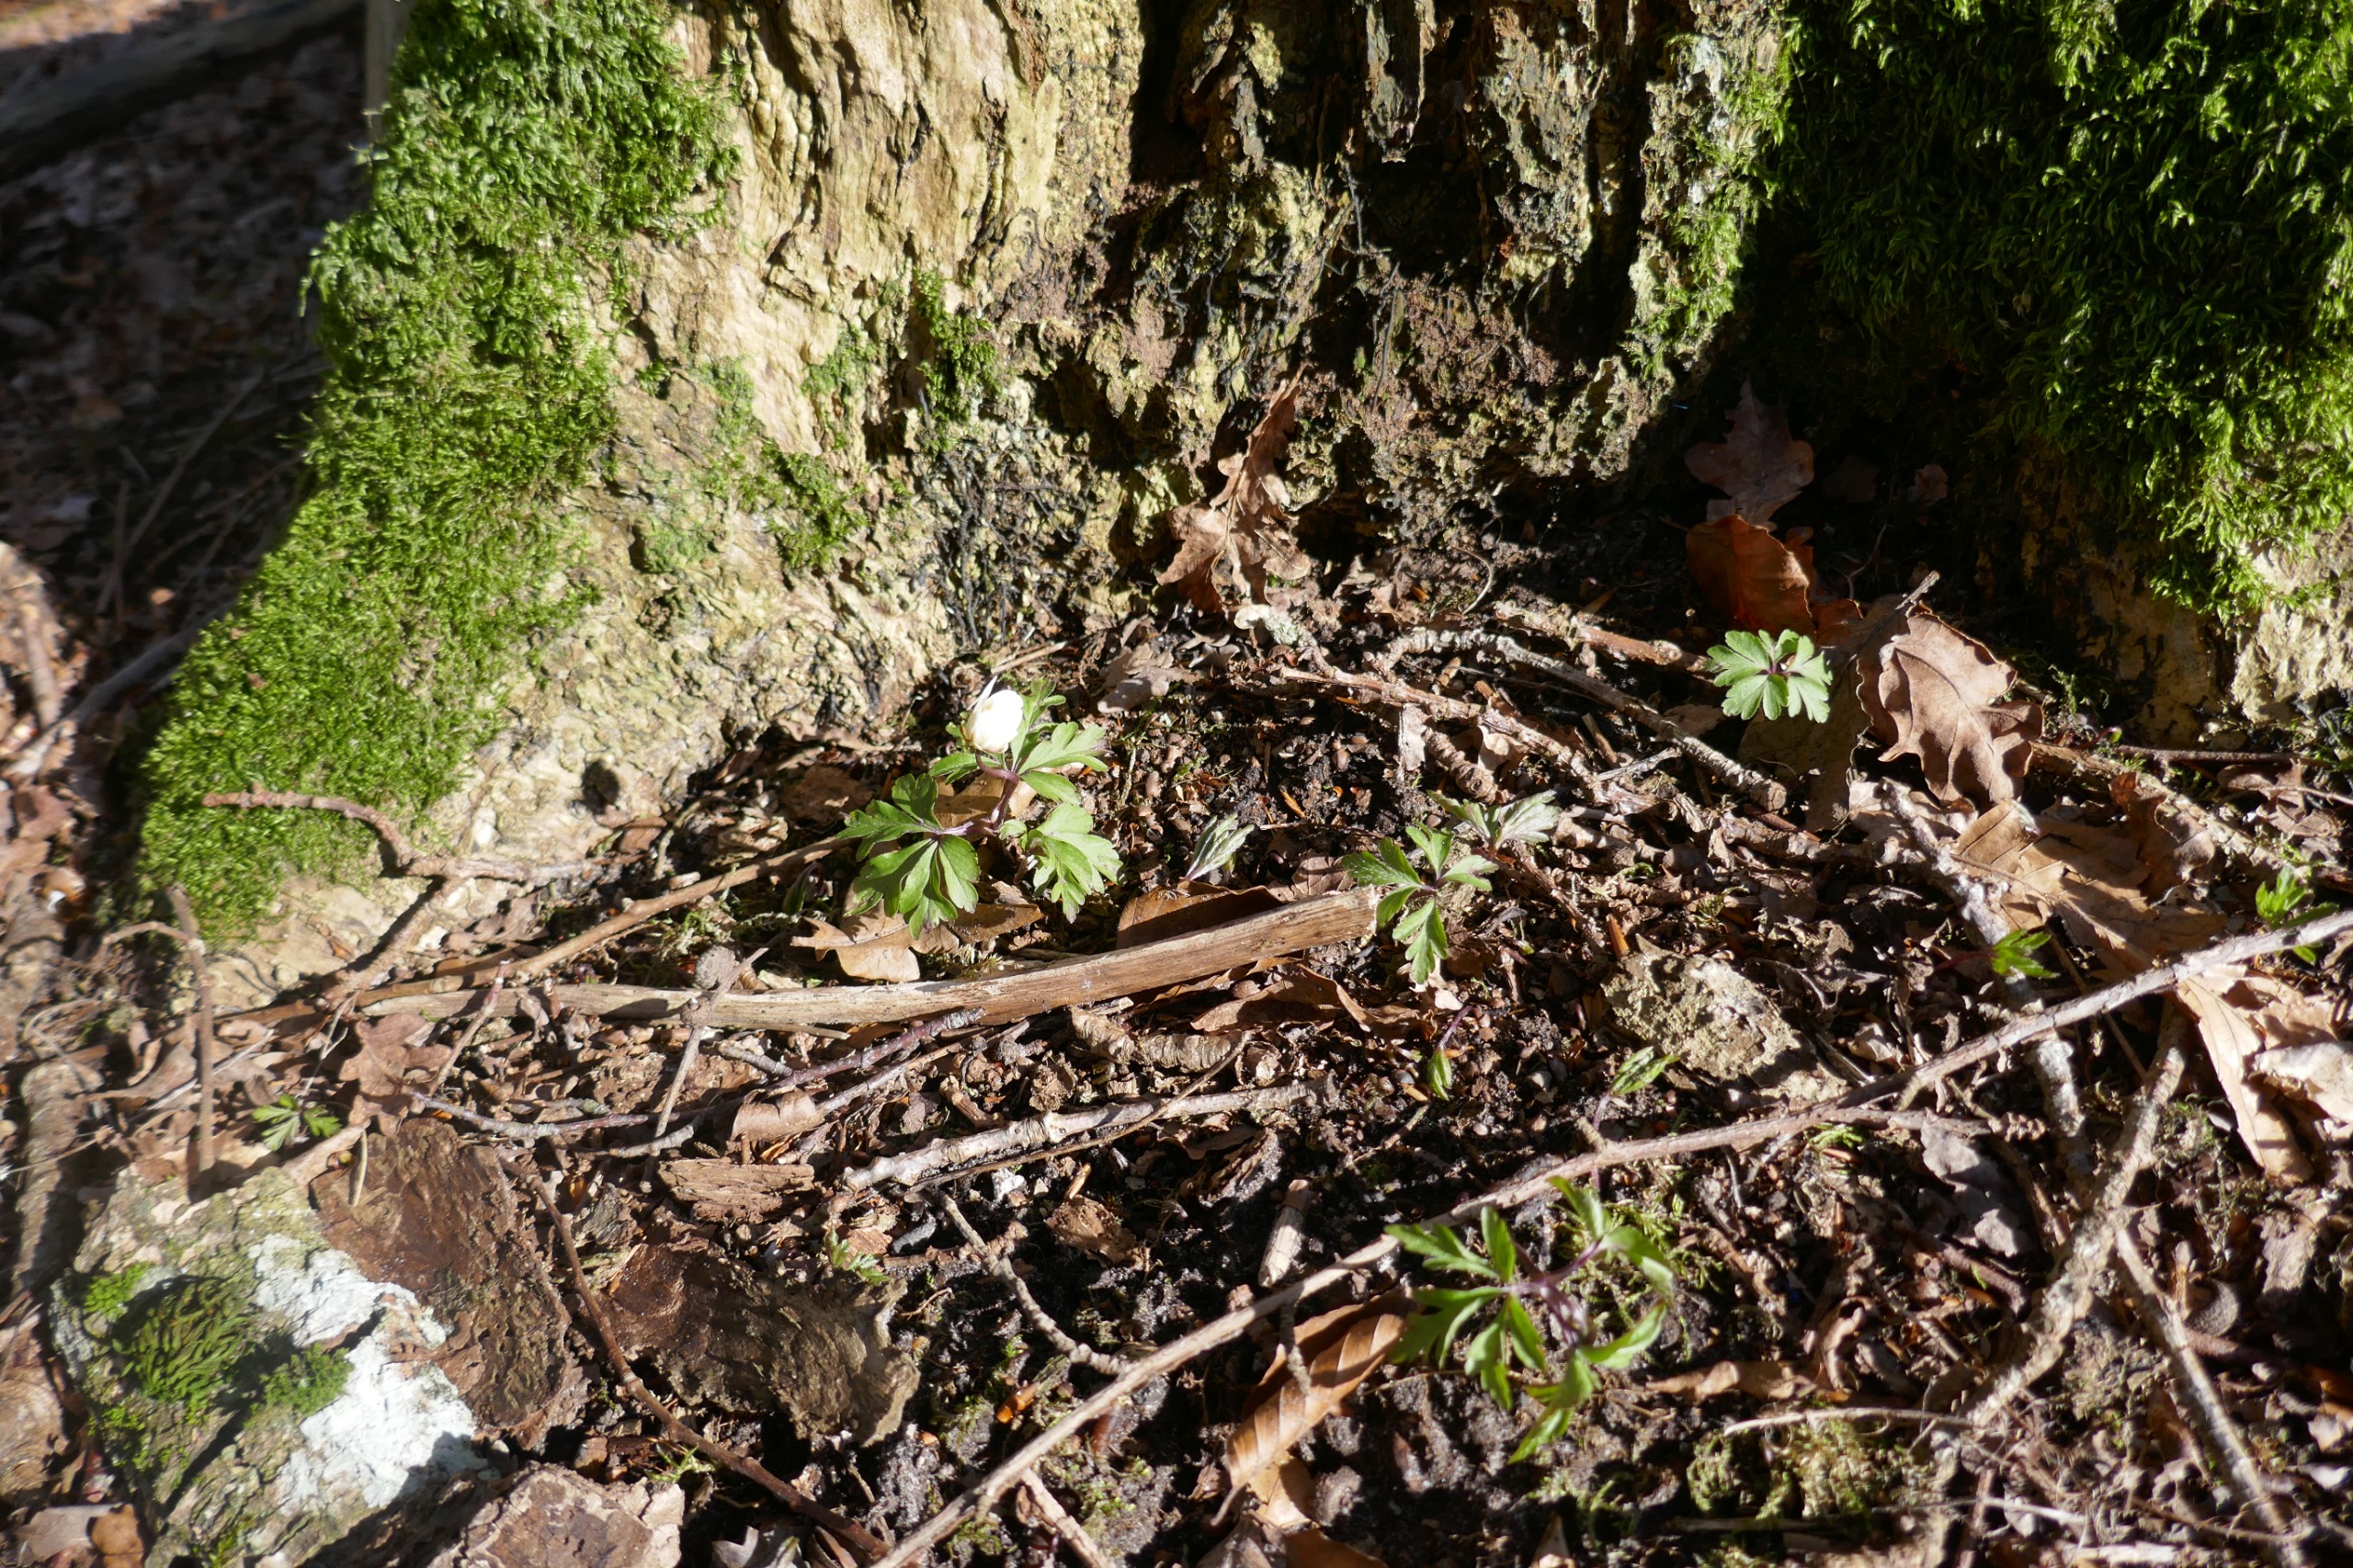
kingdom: Plantae
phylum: Tracheophyta
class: Magnoliopsida
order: Ranunculales
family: Ranunculaceae
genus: Anemone
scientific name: Anemone nemorosa
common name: Hvid anemone
